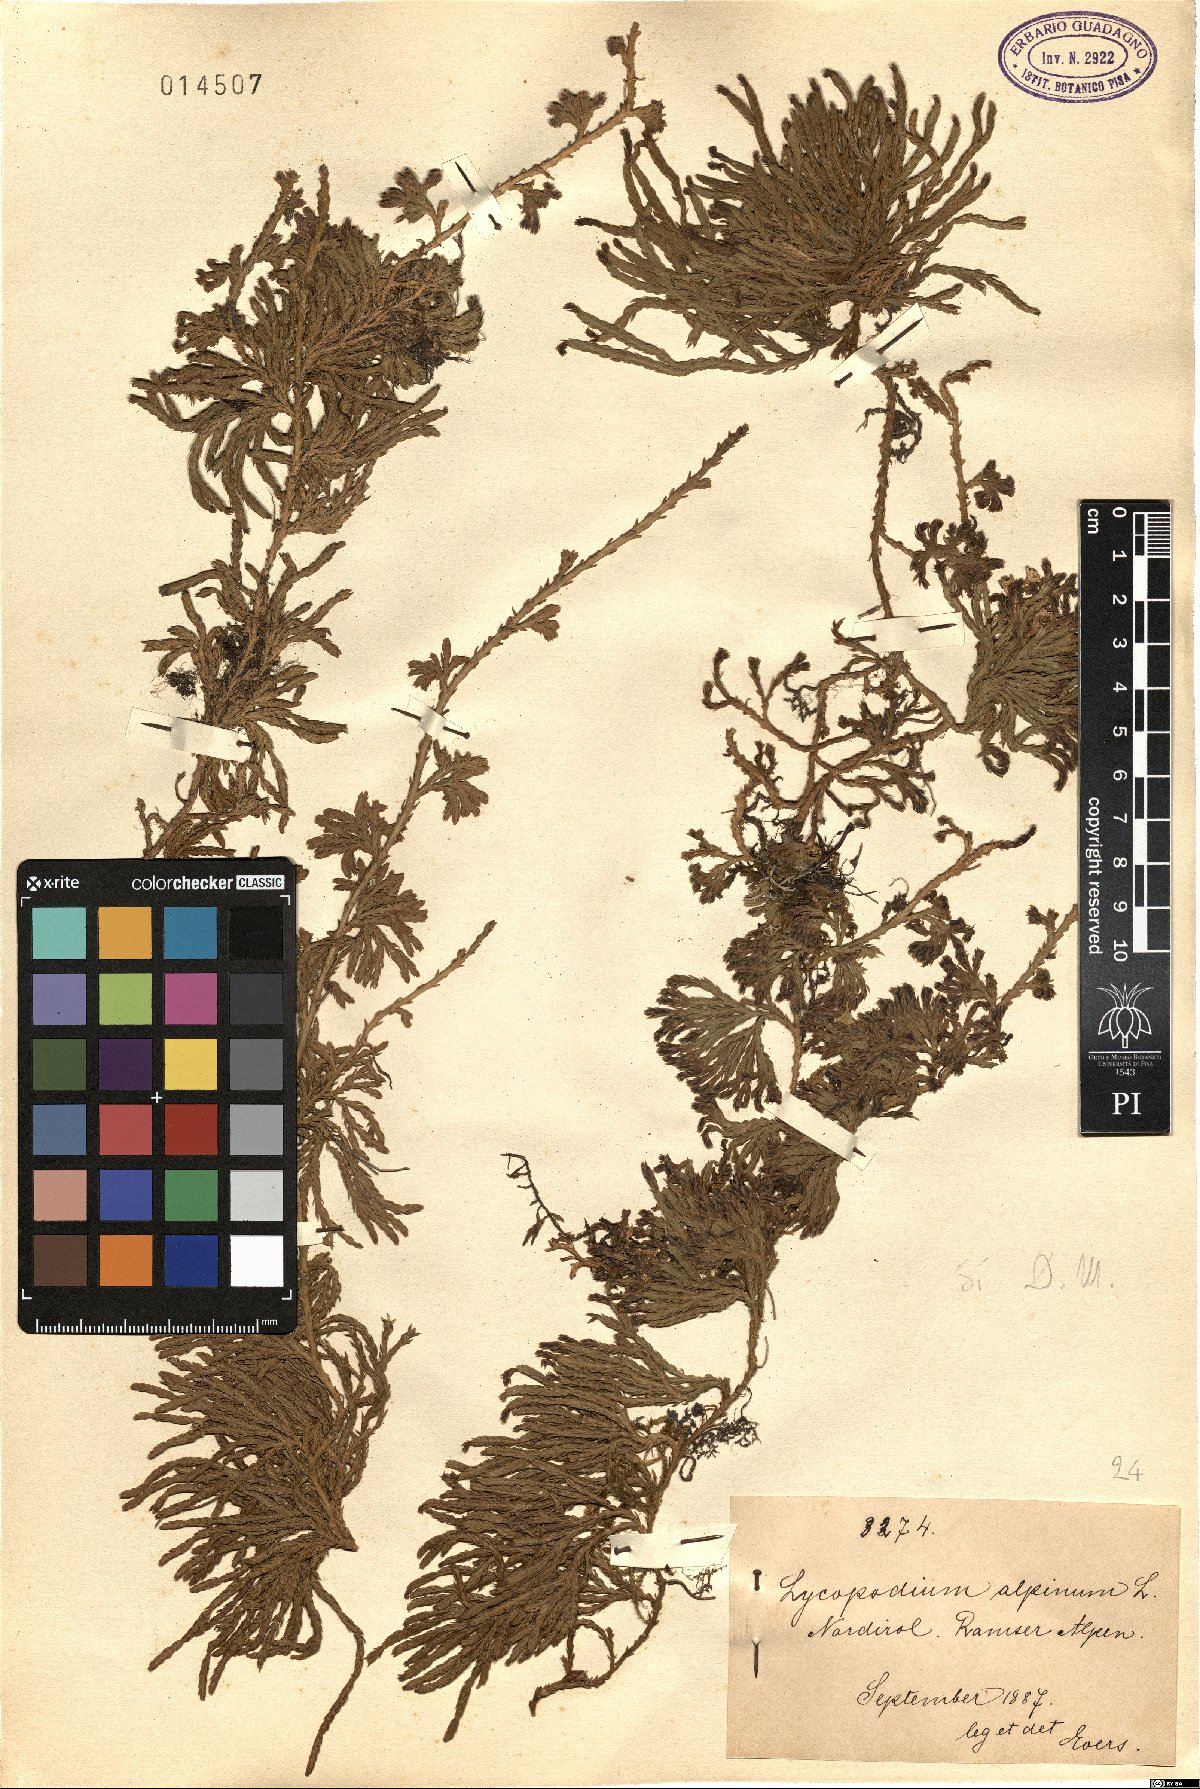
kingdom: Plantae
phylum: Tracheophyta
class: Lycopodiopsida
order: Lycopodiales
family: Lycopodiaceae
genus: Diphasiastrum
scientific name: Diphasiastrum alpinum
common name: Alpine clubmoss
